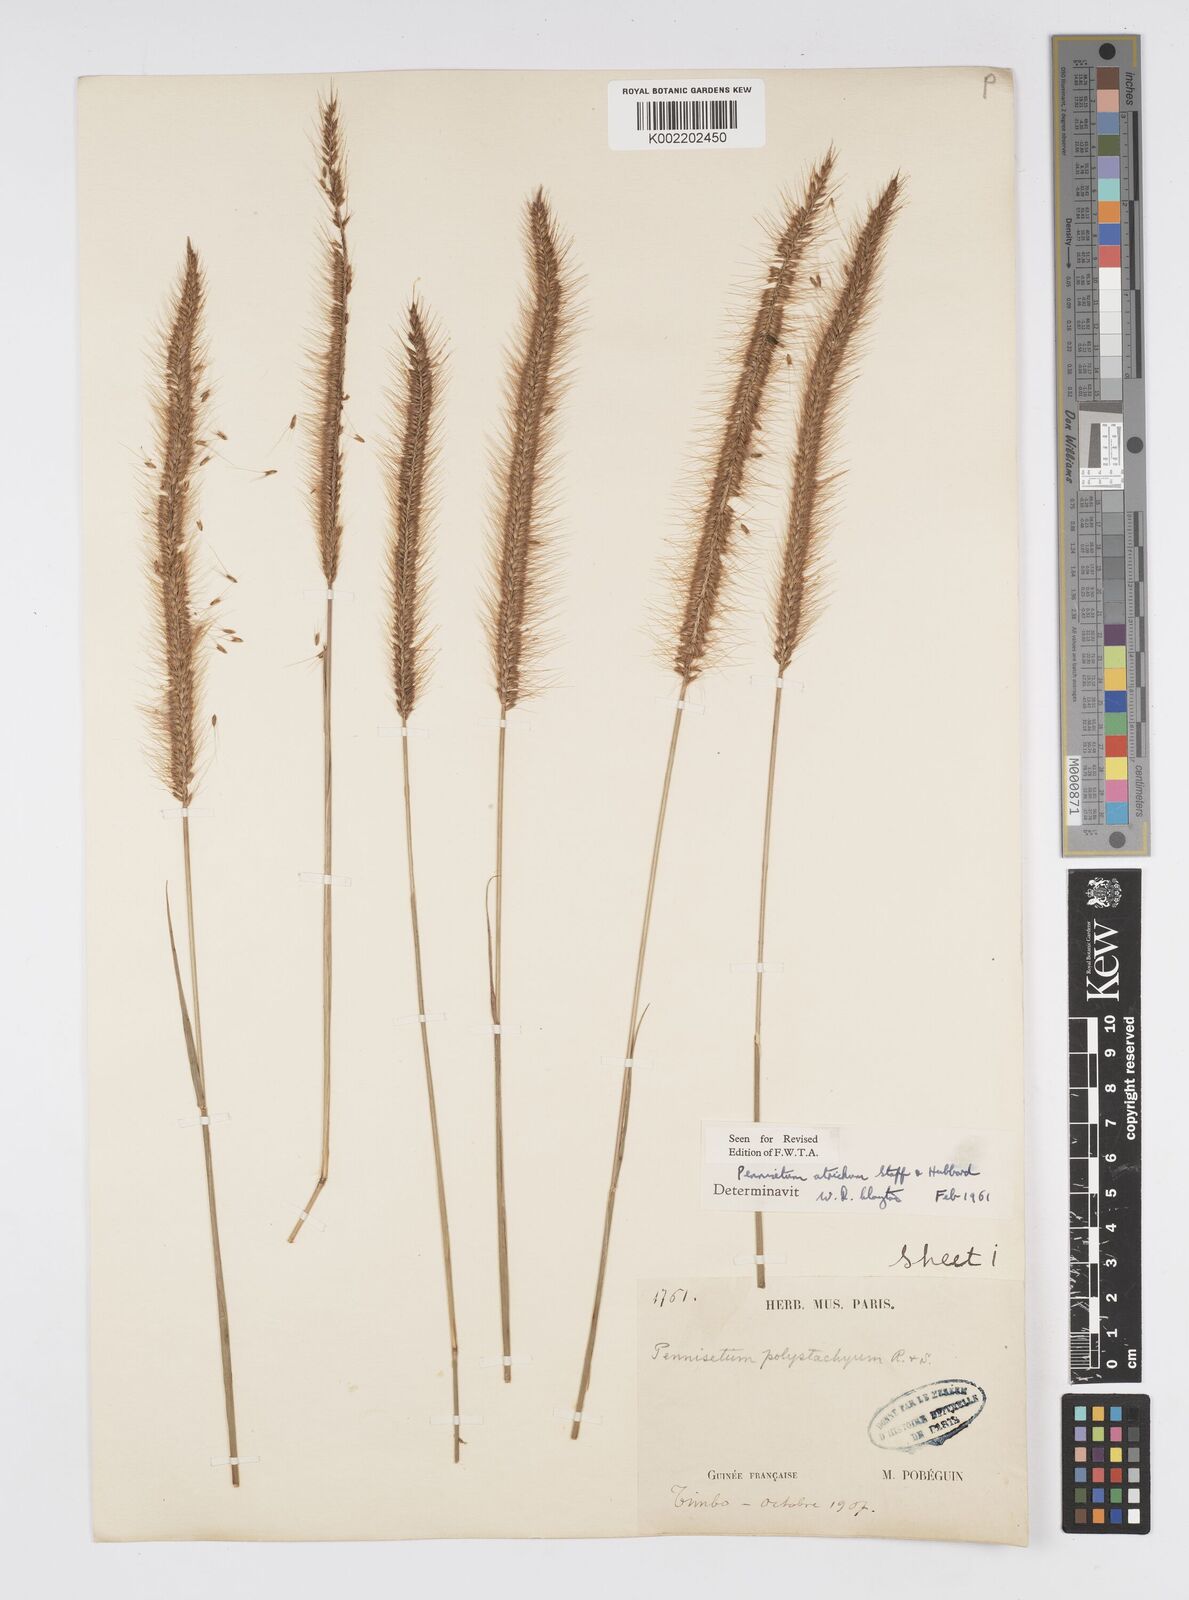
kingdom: Plantae
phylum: Tracheophyta
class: Liliopsida
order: Poales
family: Poaceae
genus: Cenchrus
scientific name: Cenchrus setosus
